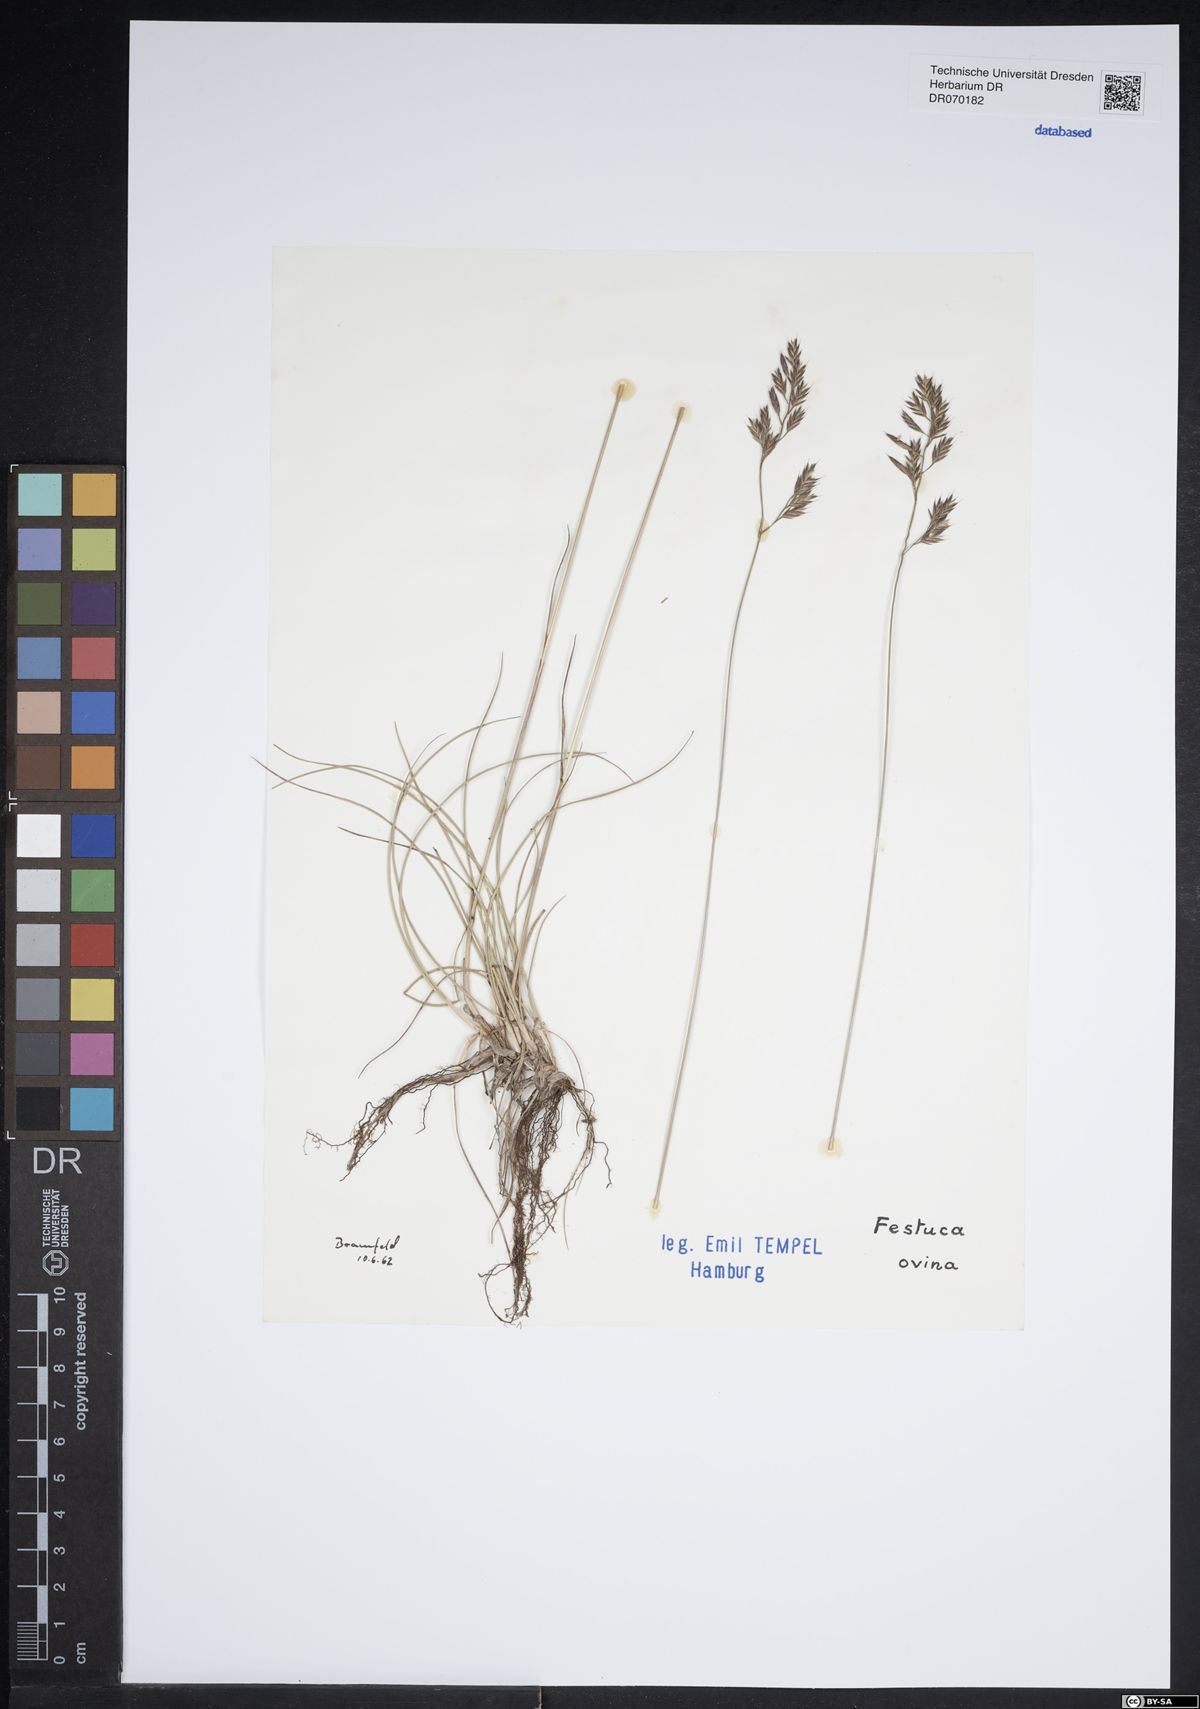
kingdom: Plantae
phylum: Tracheophyta
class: Liliopsida
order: Poales
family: Poaceae
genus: Festuca
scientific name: Festuca ovina
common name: Sheep fescue
